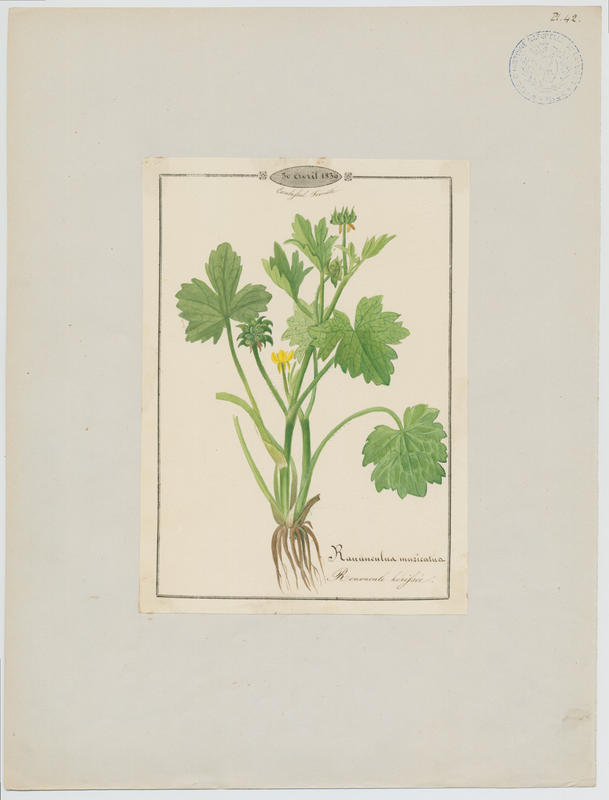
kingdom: Plantae
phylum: Tracheophyta
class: Magnoliopsida
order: Ranunculales
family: Ranunculaceae
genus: Ranunculus
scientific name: Ranunculus muricatus
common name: Rough-fruited buttercup
